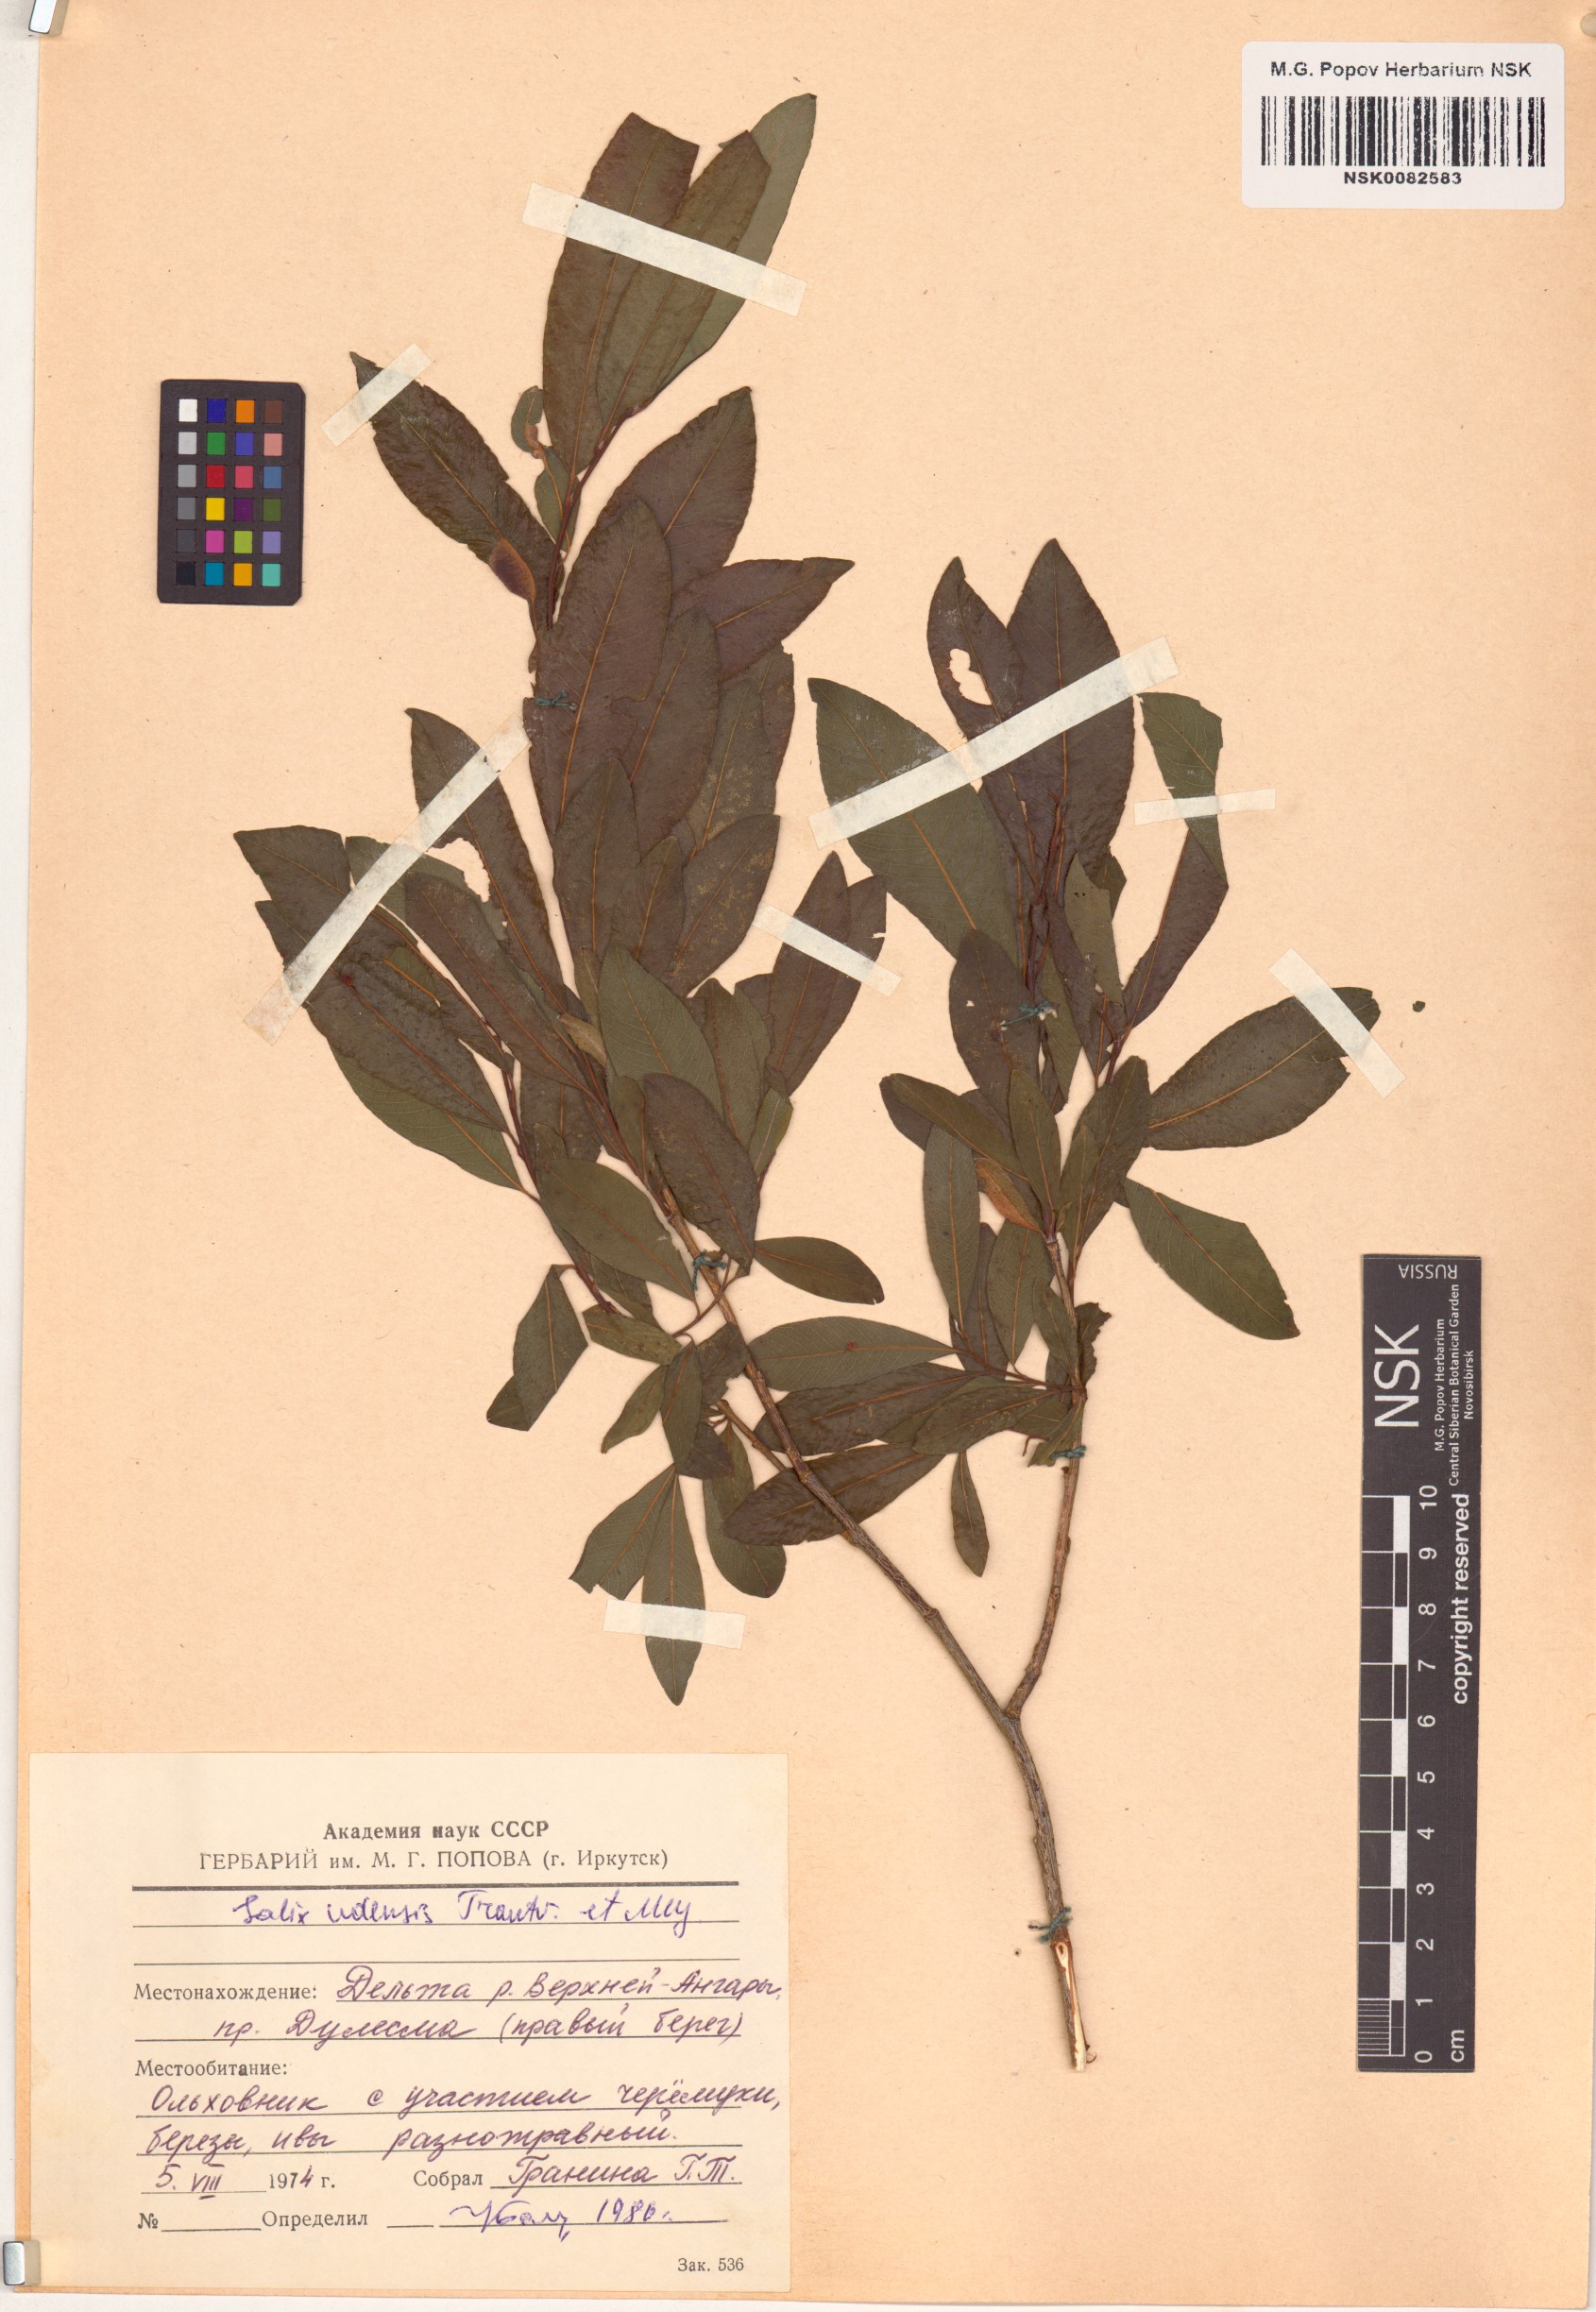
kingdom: Plantae
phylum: Tracheophyta
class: Magnoliopsida
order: Malpighiales
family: Salicaceae
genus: Salix
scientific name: Salix udensis
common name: Sachalin willow
